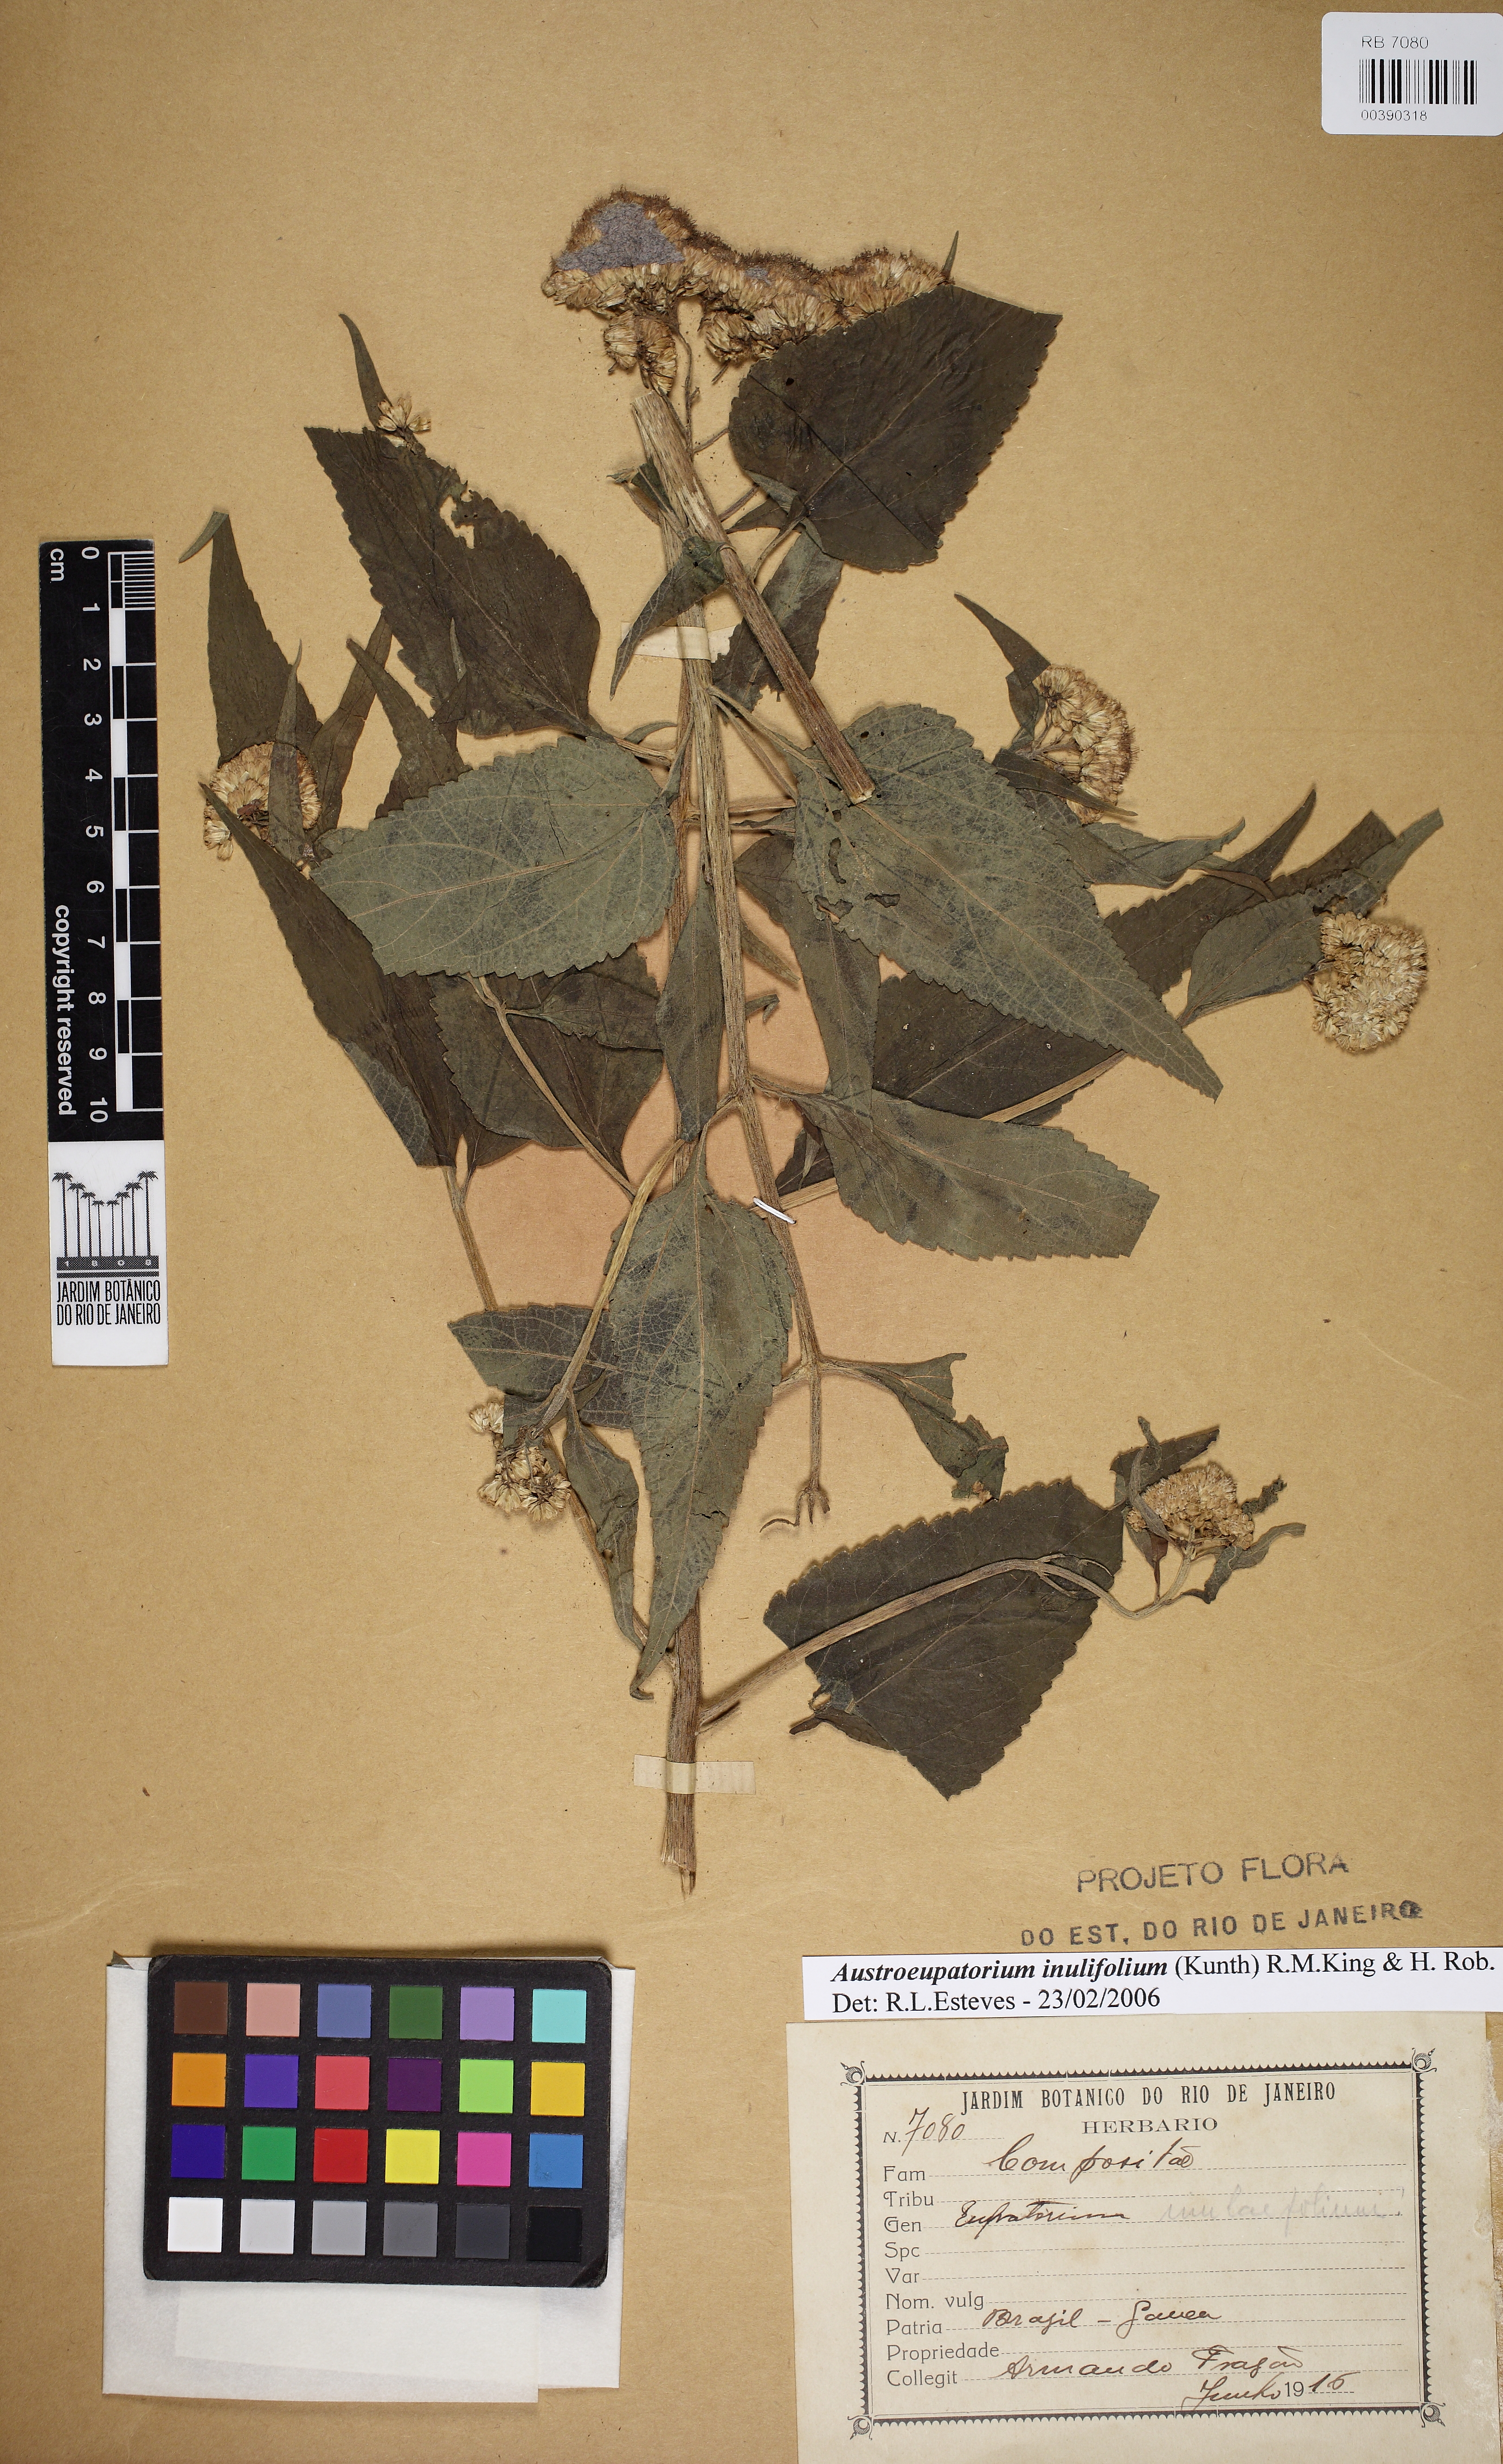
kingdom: Plantae
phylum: Tracheophyta
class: Magnoliopsida
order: Asterales
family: Asteraceae
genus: Austroeupatorium
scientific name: Austroeupatorium inulaefolium
